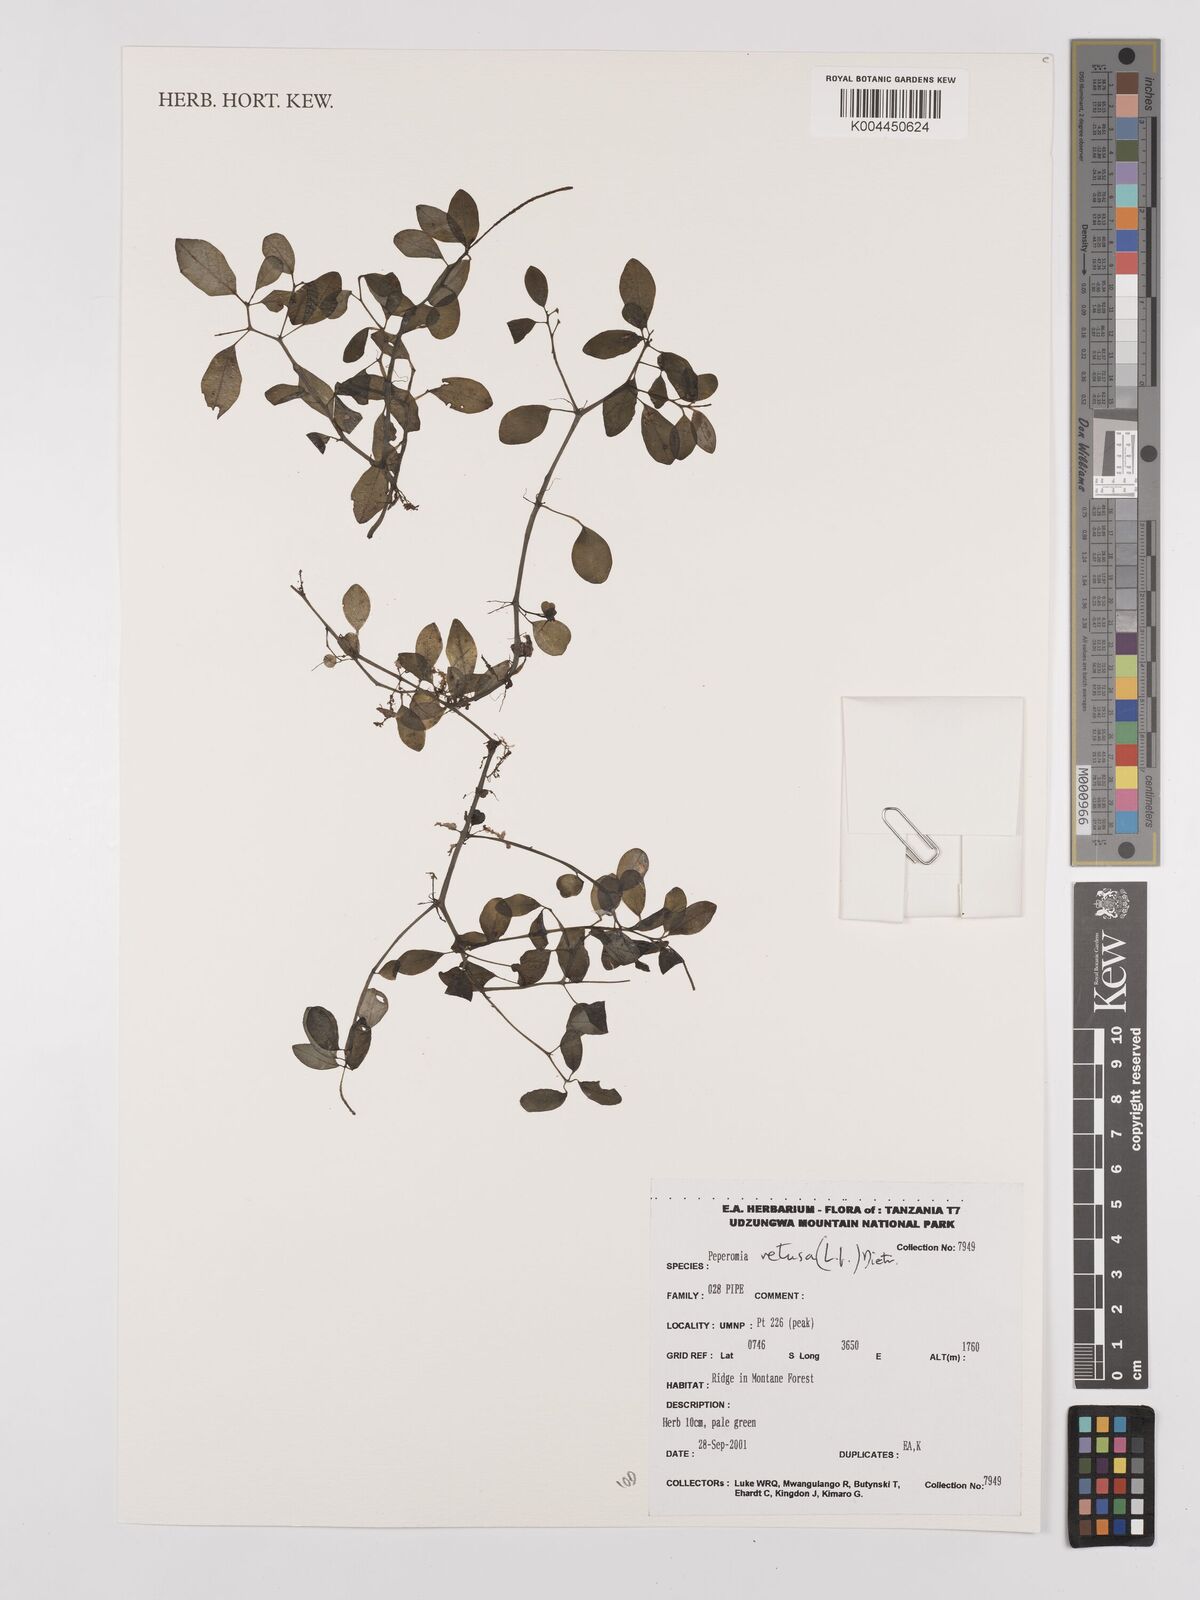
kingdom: Plantae
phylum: Tracheophyta
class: Magnoliopsida
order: Piperales
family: Piperaceae
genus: Peperomia
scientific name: Peperomia retusa
